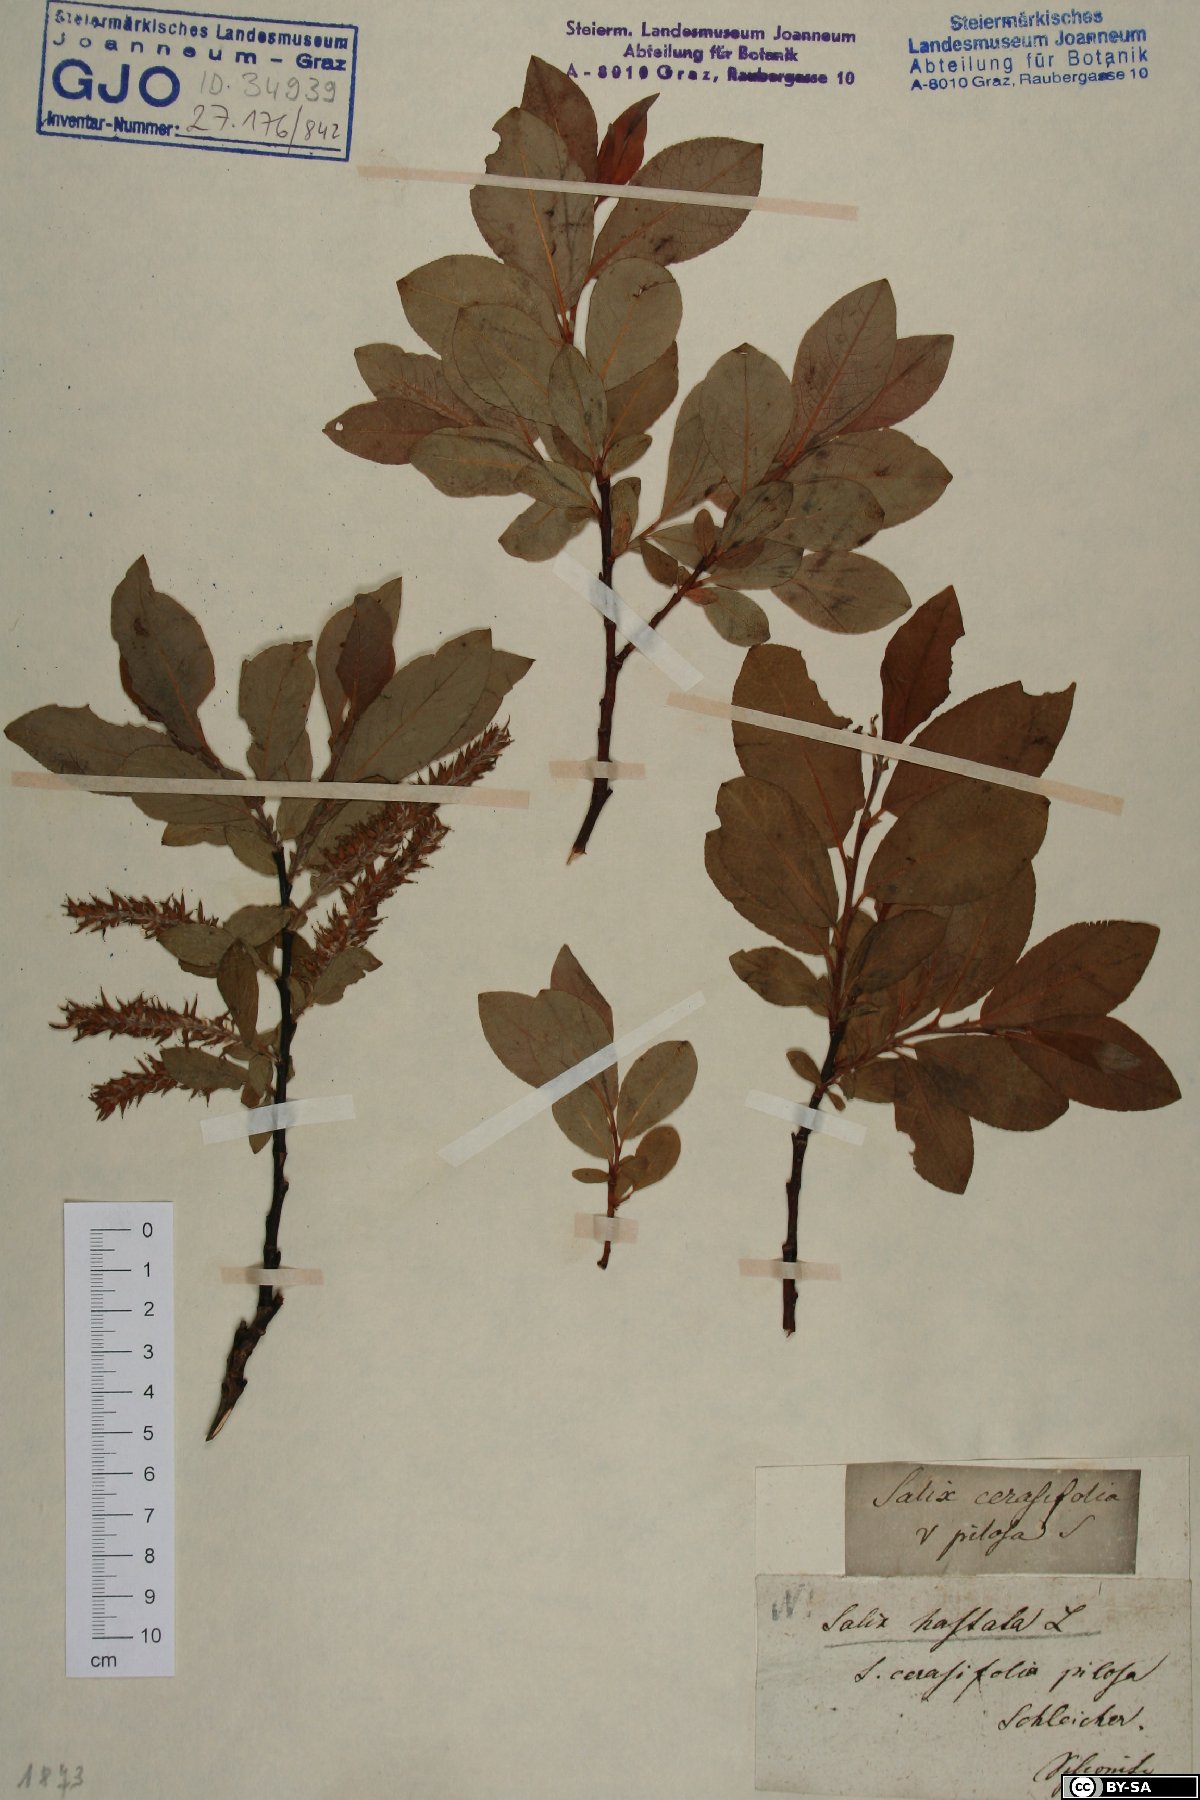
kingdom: Plantae
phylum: Tracheophyta
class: Magnoliopsida
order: Malpighiales
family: Salicaceae
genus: Salix
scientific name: Salix hastata
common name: Halberd willow
